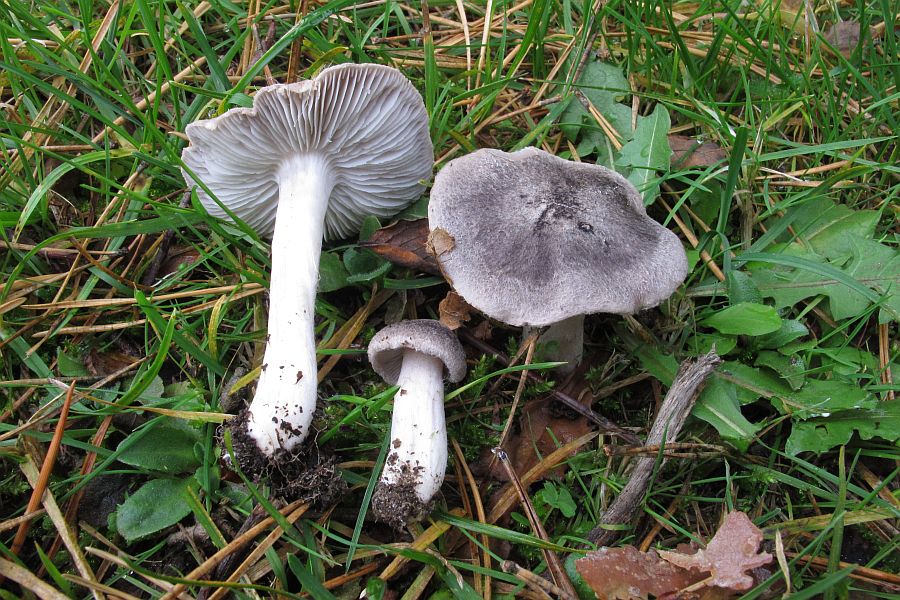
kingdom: Fungi
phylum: Basidiomycota
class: Agaricomycetes
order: Agaricales
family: Tricholomataceae
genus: Tricholoma
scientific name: Tricholoma terreum
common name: jordfarvet ridderhat
